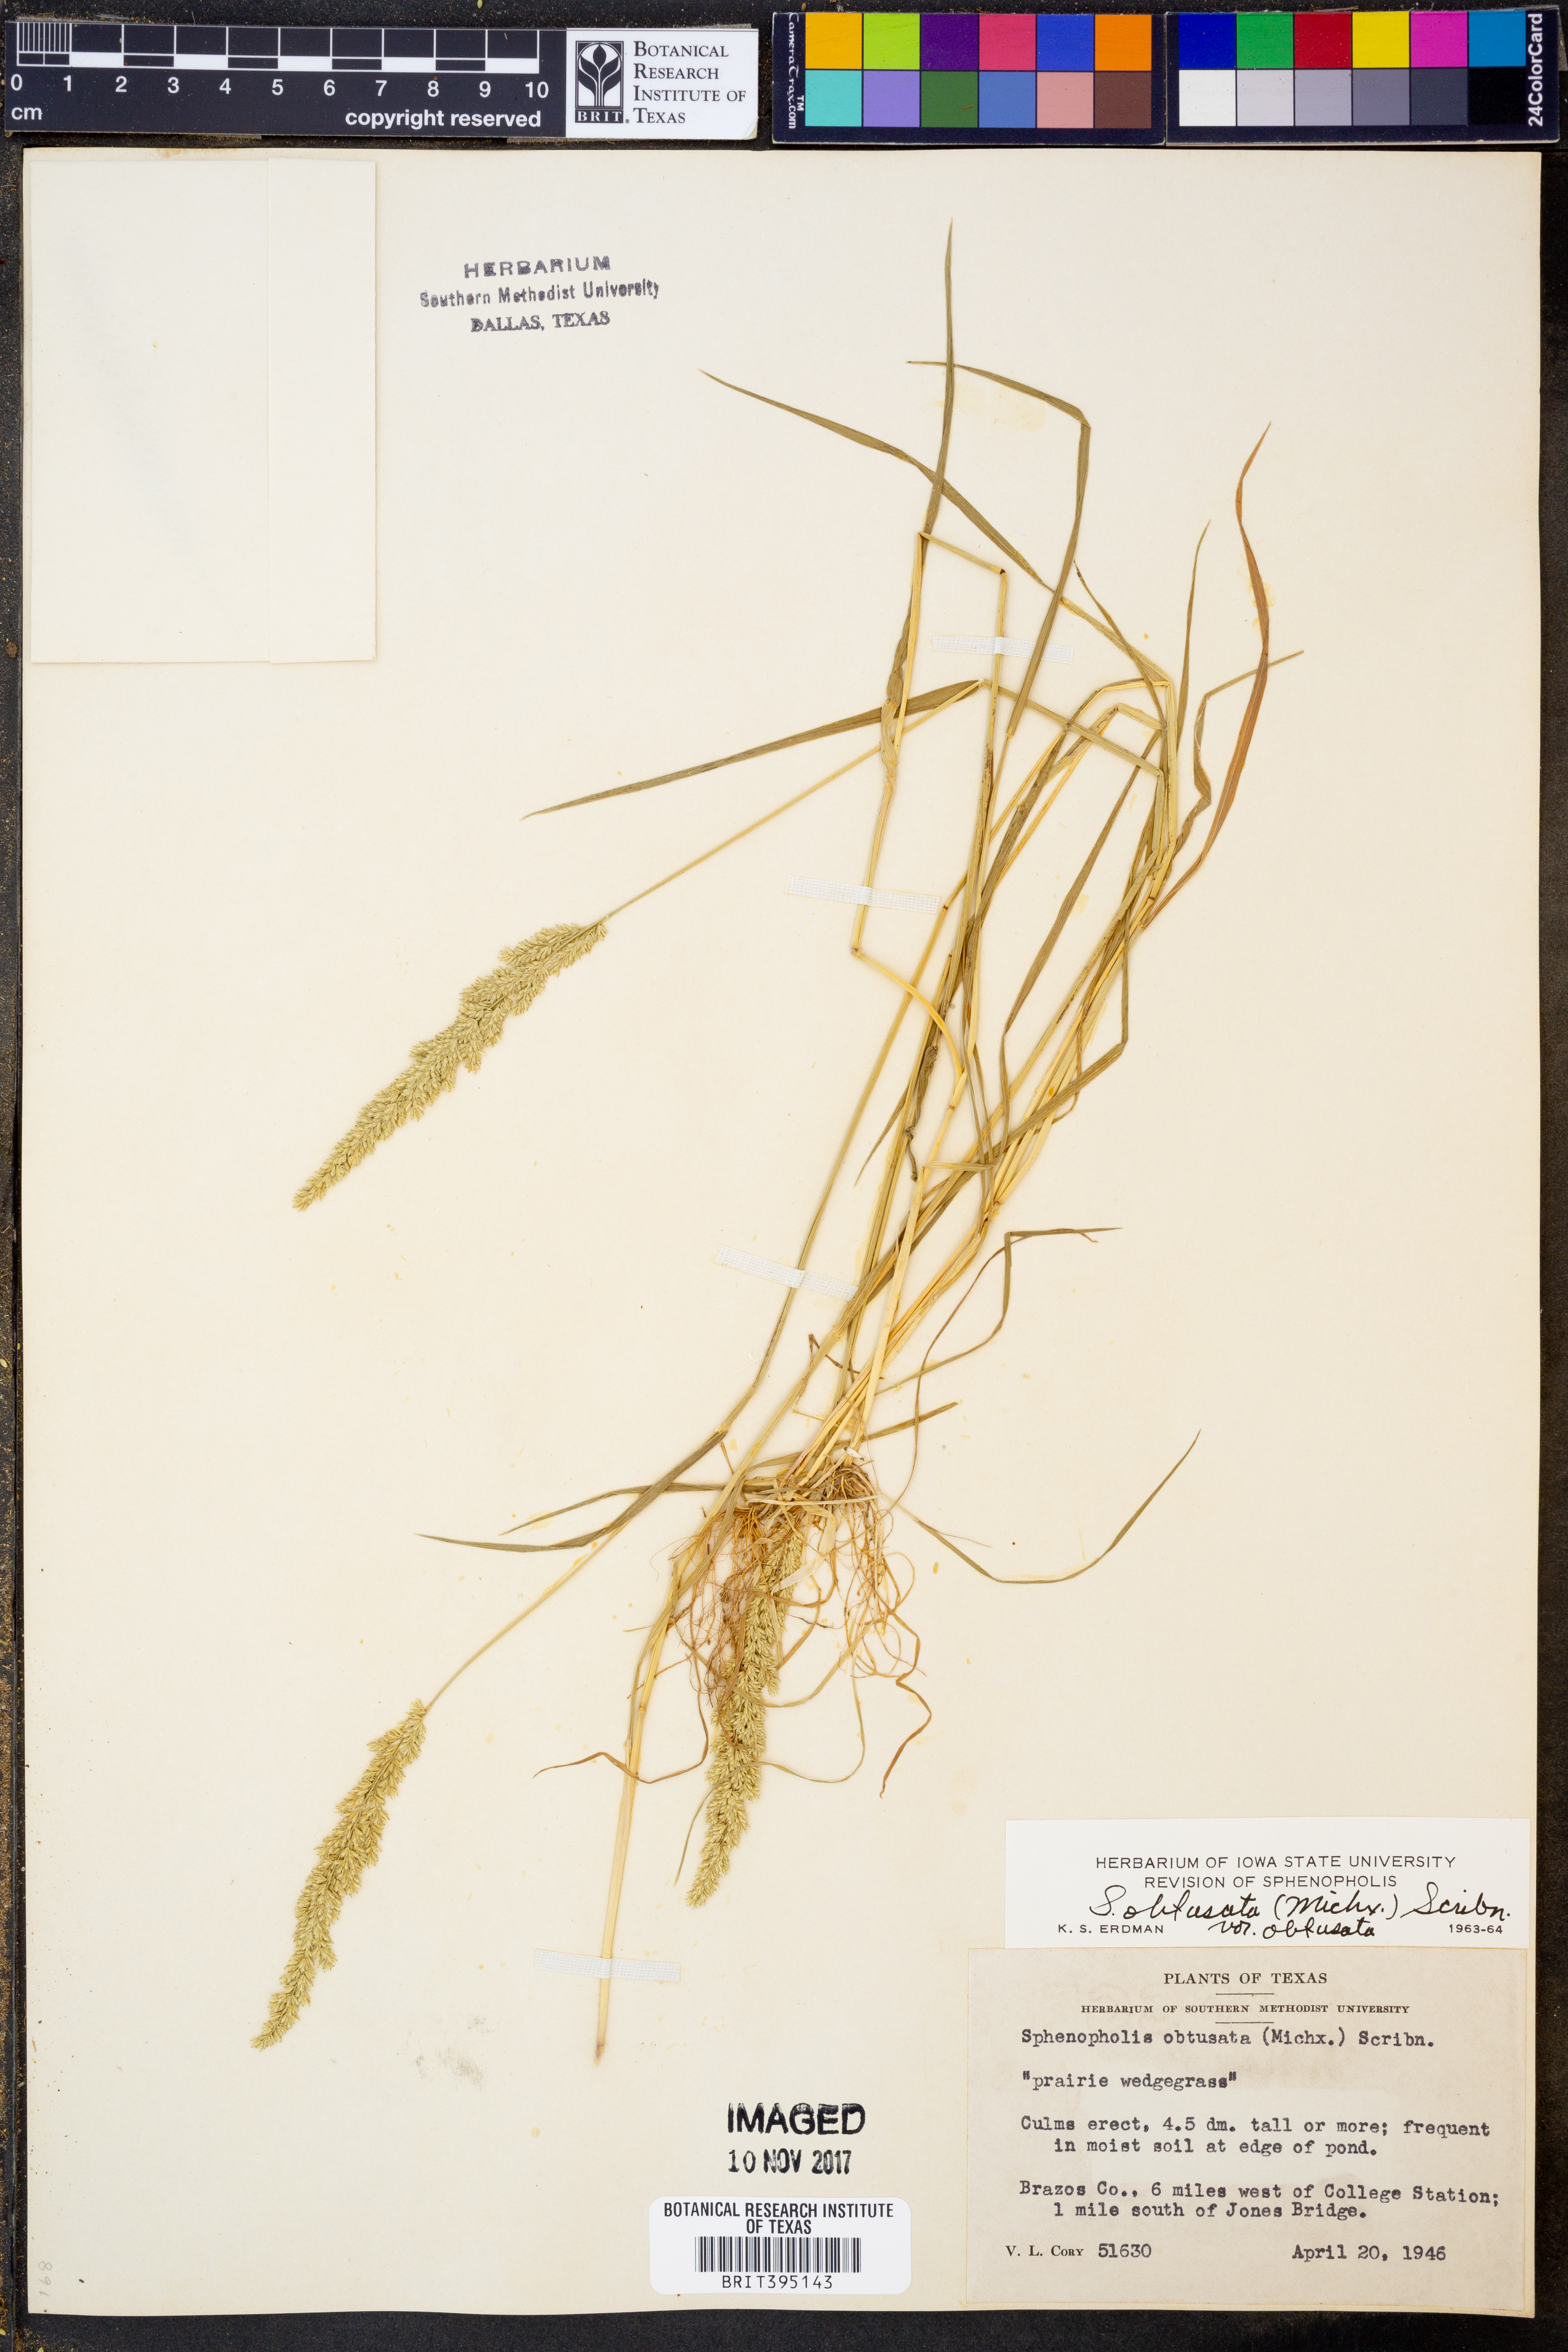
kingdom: Plantae
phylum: Tracheophyta
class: Liliopsida
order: Poales
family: Poaceae
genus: Sphenopholis
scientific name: Sphenopholis obtusata
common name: Prairie grass
